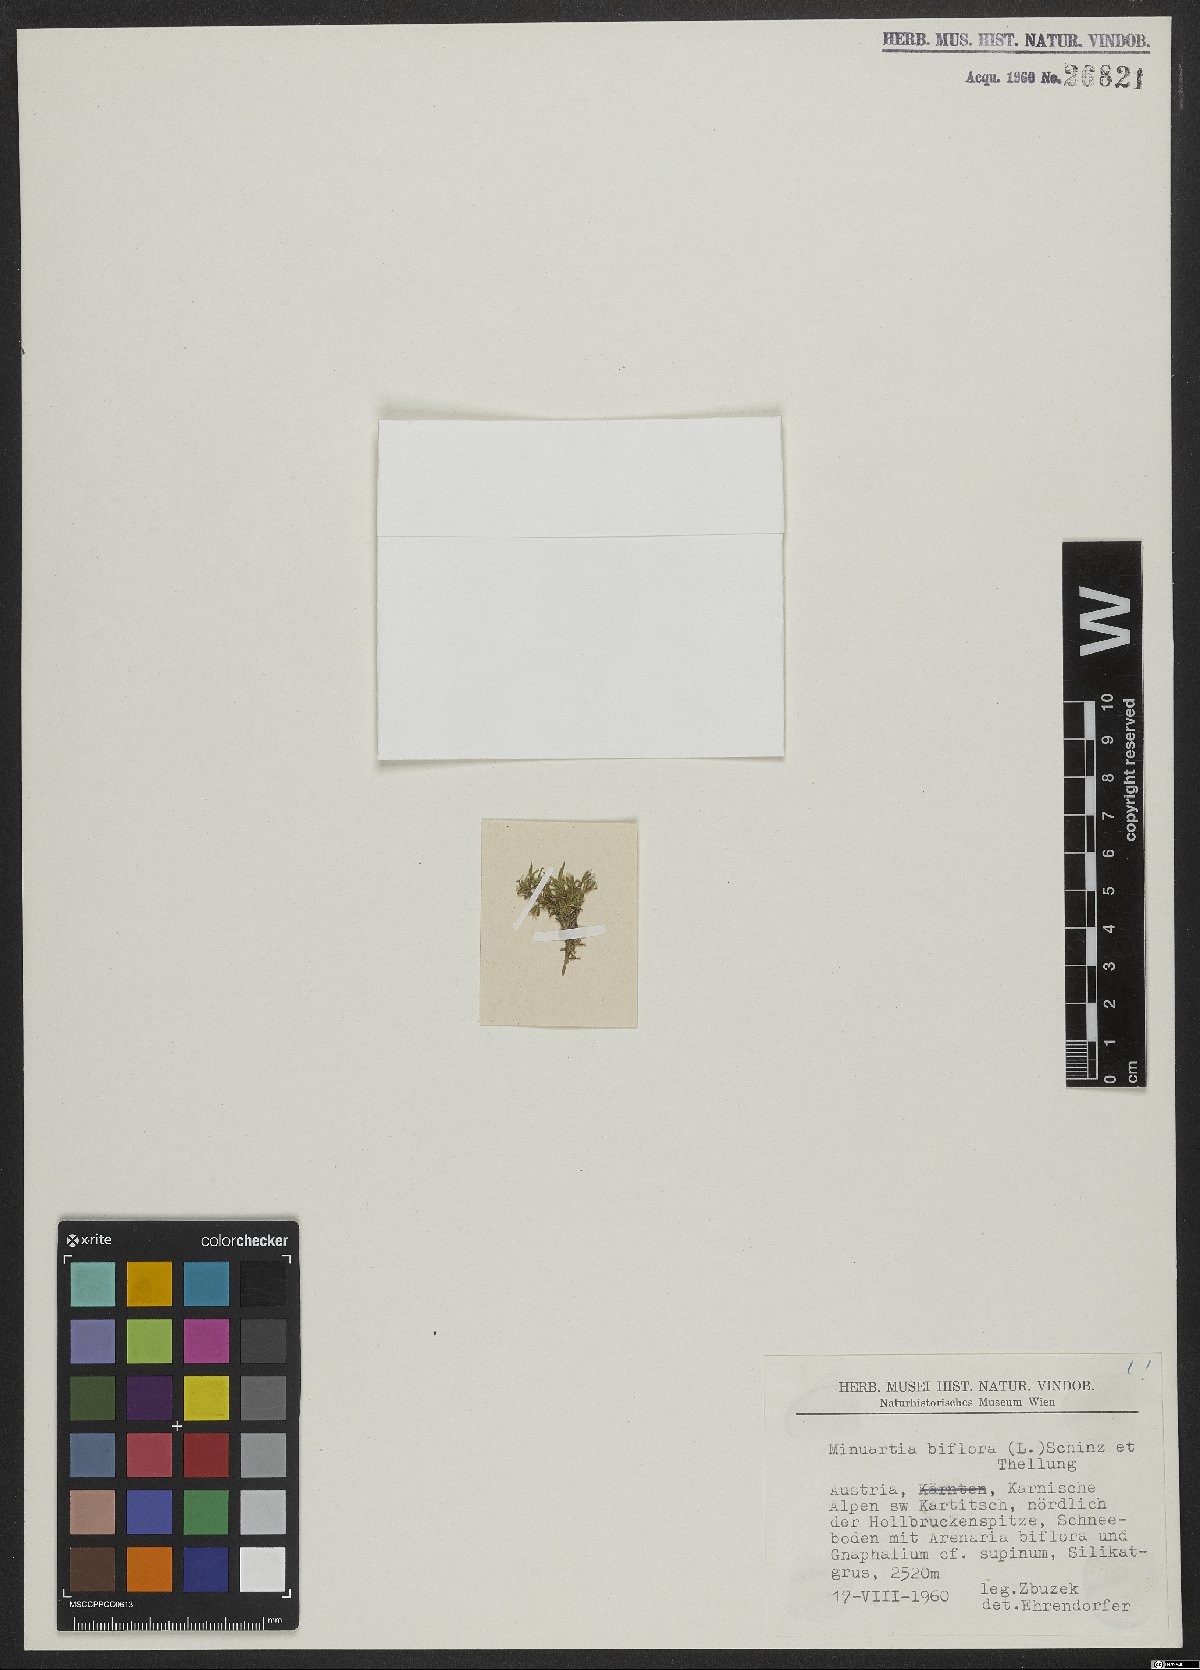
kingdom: Plantae
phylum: Tracheophyta
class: Magnoliopsida
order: Caryophyllales
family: Caryophyllaceae
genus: Cherleria
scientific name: Cherleria biflora
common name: Mountain sandwort
